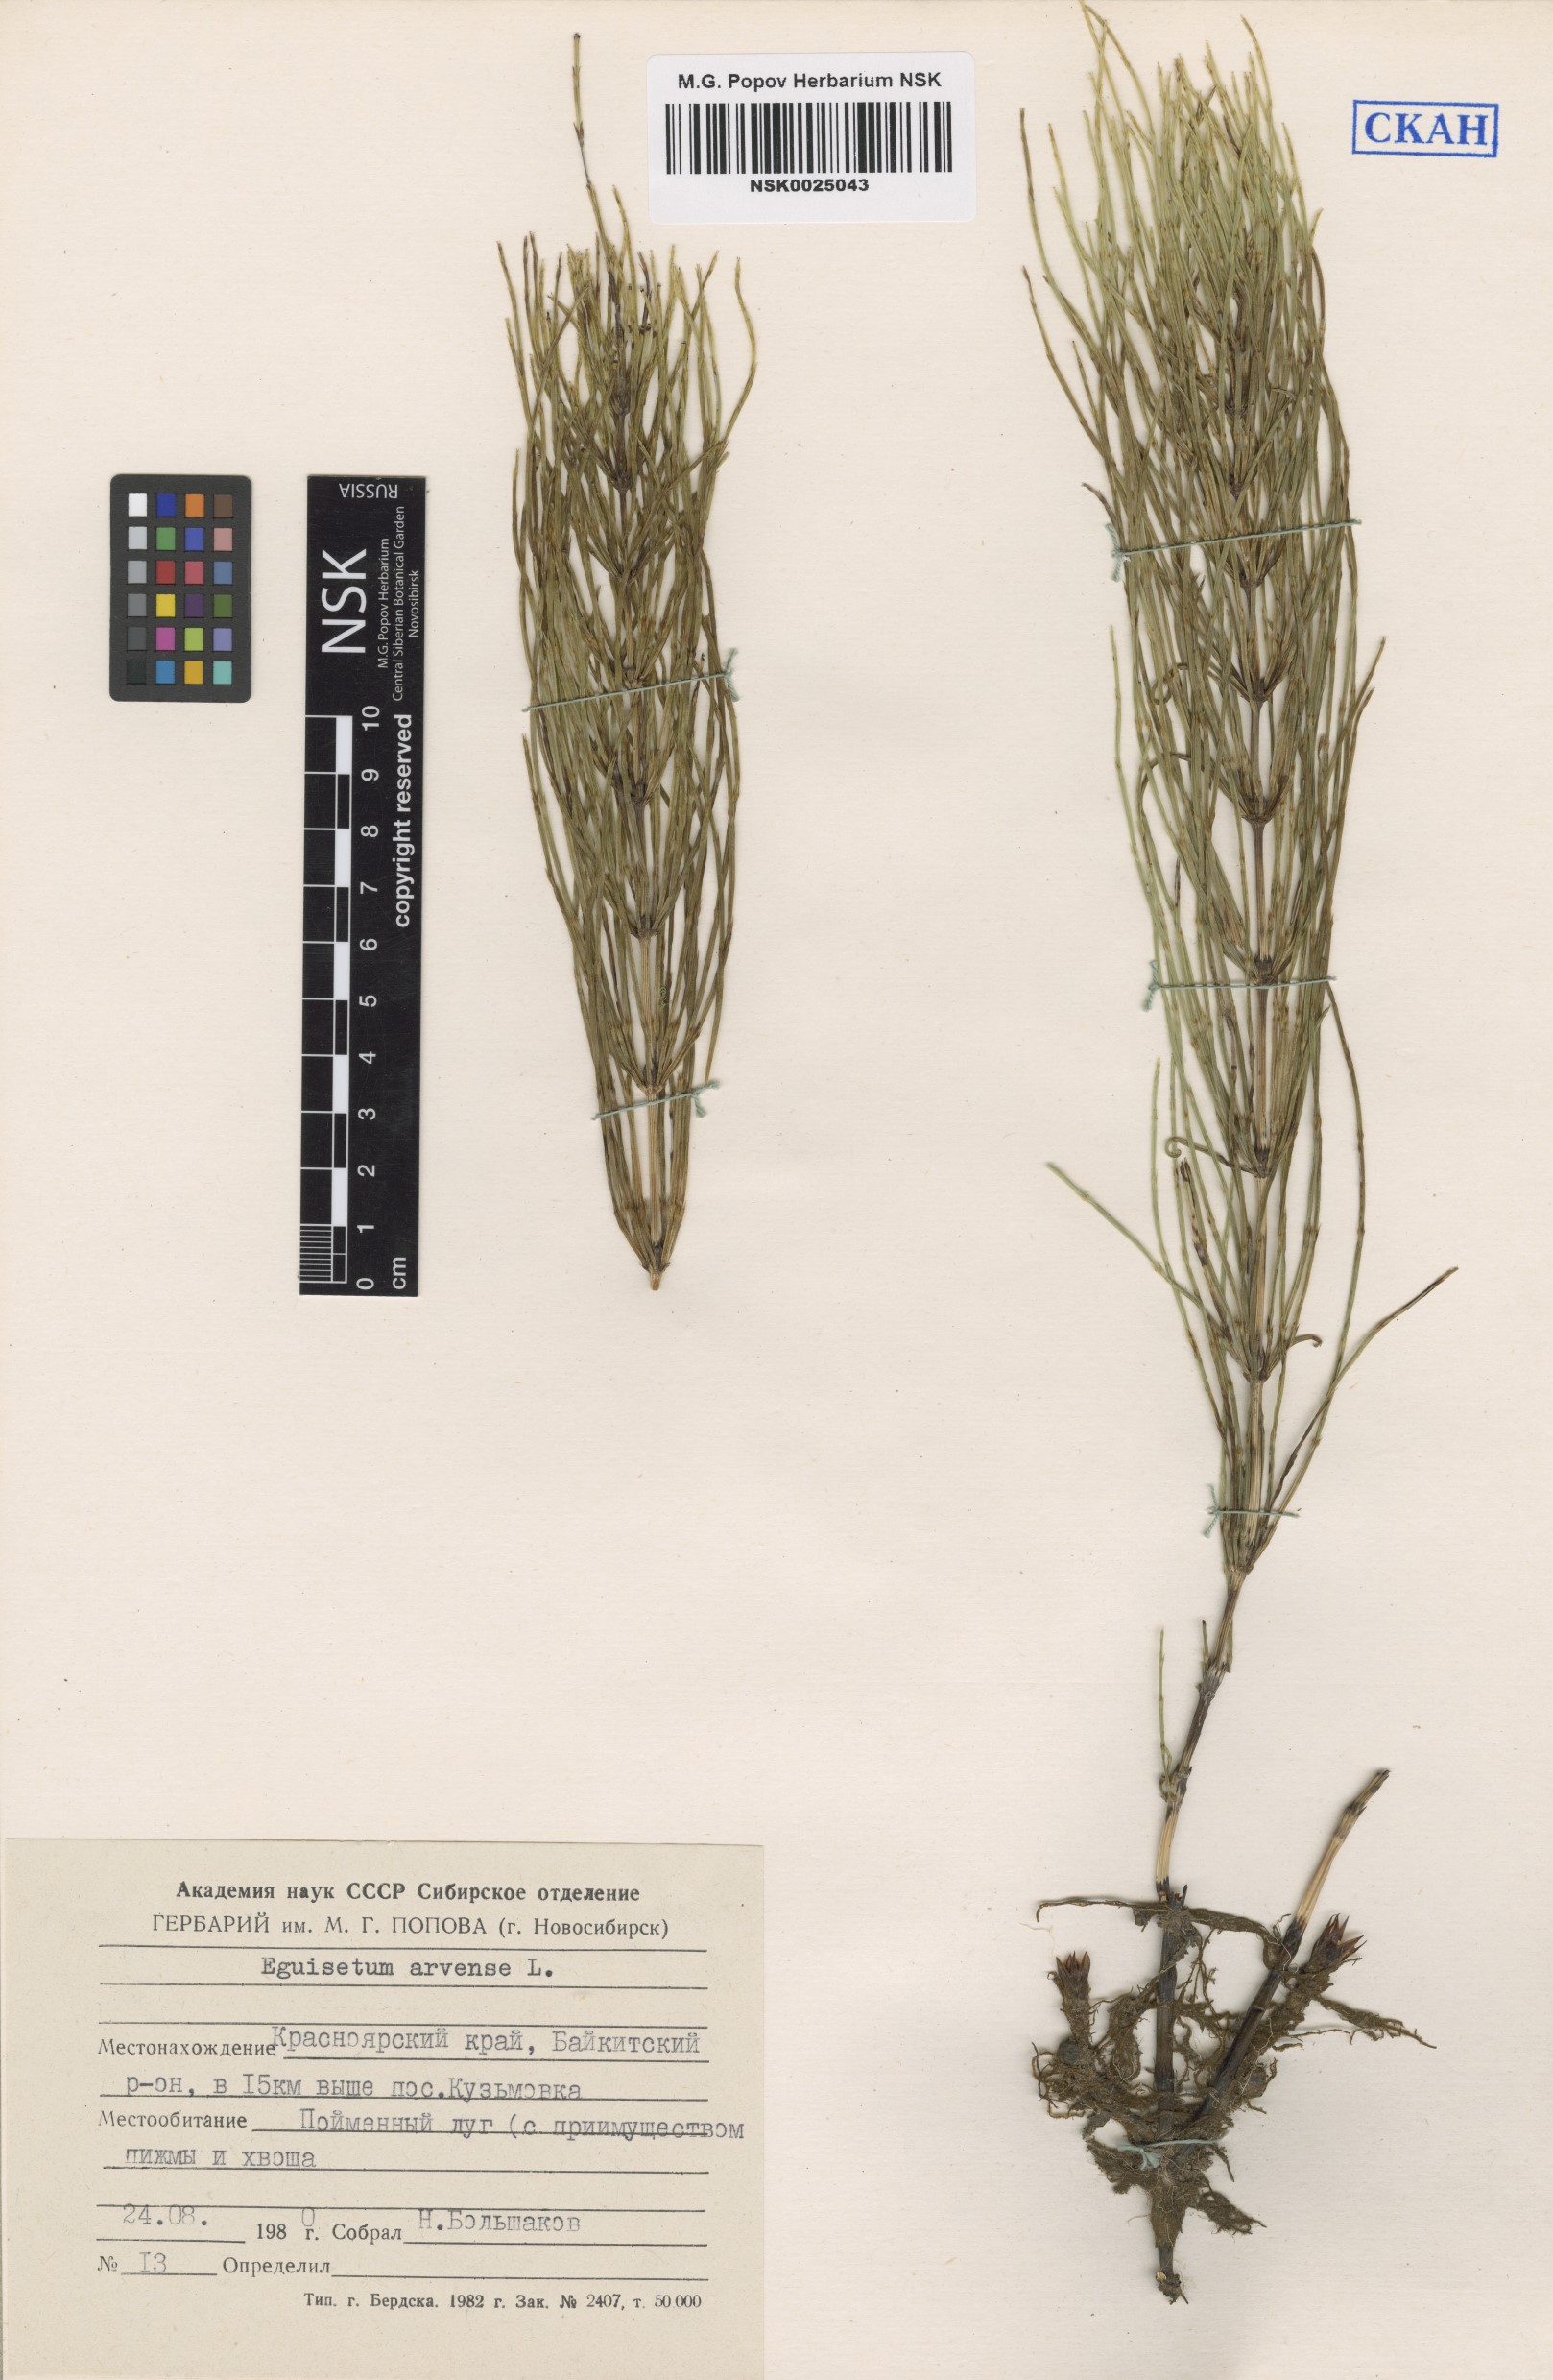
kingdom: Plantae
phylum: Tracheophyta
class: Polypodiopsida
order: Equisetales
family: Equisetaceae
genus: Equisetum
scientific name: Equisetum arvense
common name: Field horsetail
